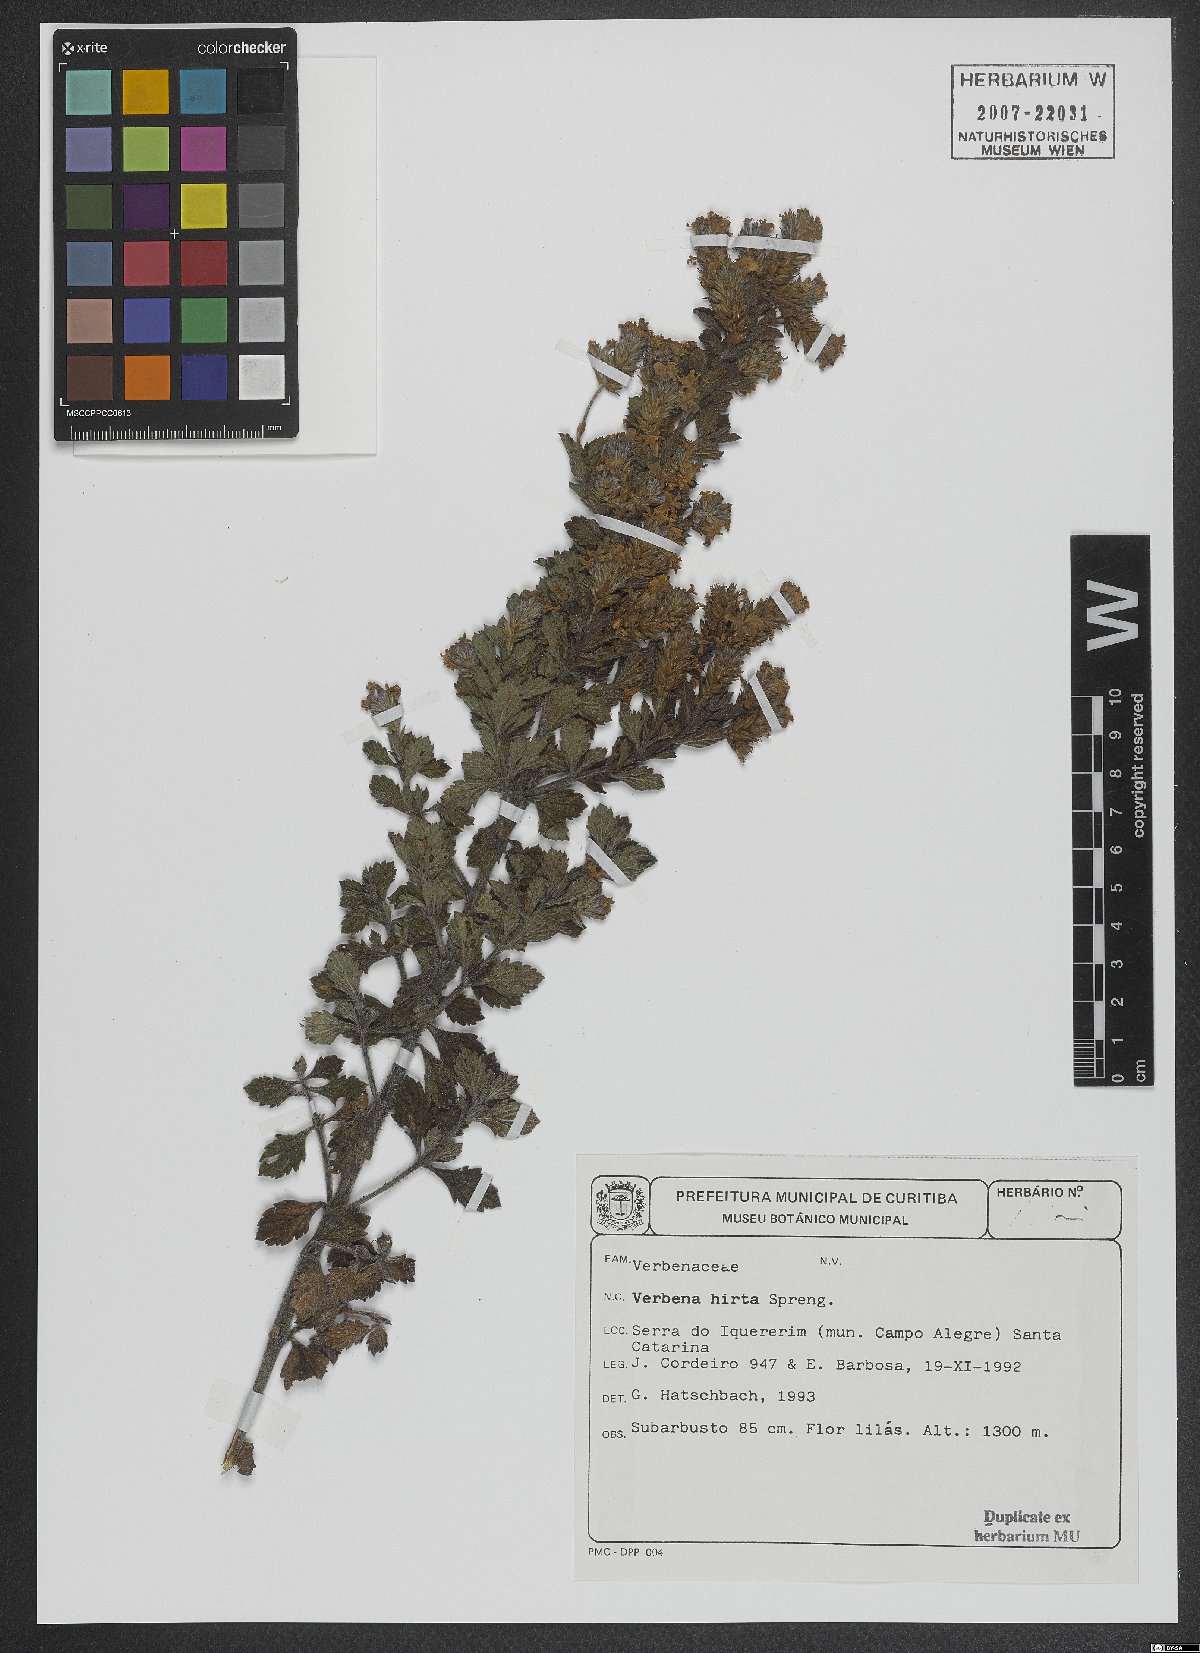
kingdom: Plantae
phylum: Tracheophyta
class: Magnoliopsida
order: Lamiales
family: Verbenaceae
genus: Verbena
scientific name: Verbena hirta
